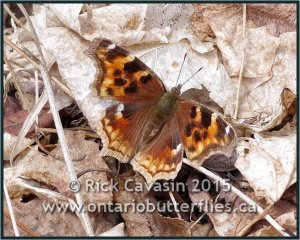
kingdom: Animalia
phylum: Arthropoda
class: Insecta
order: Lepidoptera
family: Nymphalidae
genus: Polygonia
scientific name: Polygonia vaualbum
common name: Compton Tortoiseshell
